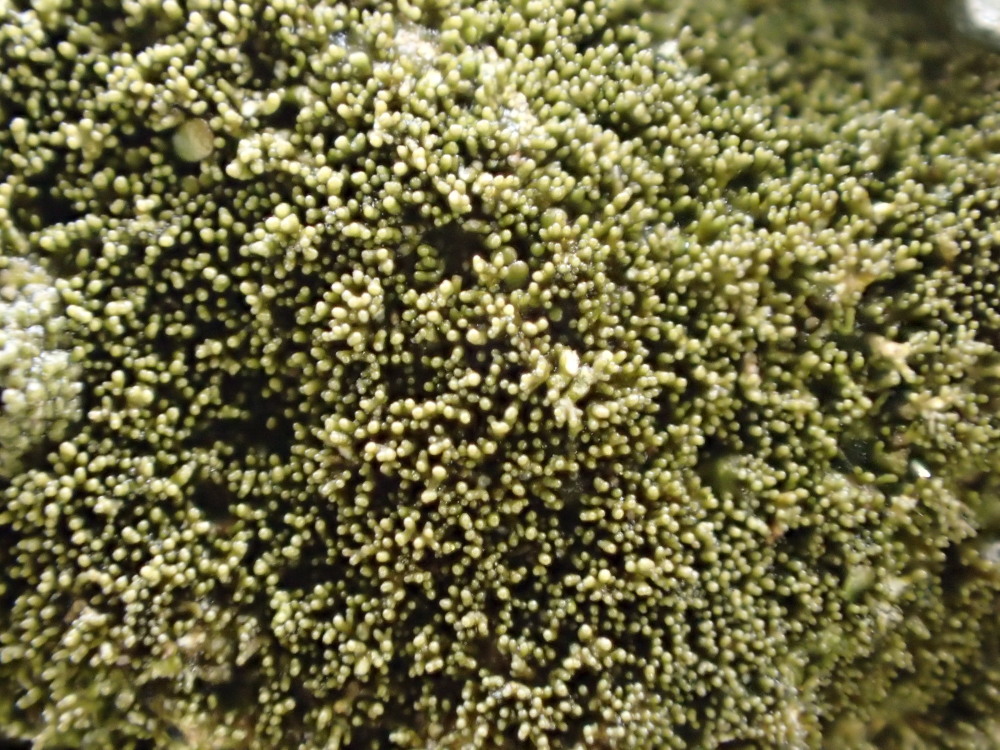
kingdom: Fungi
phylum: Ascomycota
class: Lecanoromycetes
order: Lecanorales
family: Parmeliaceae
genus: Melanelixia
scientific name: Melanelixia fuliginosa
